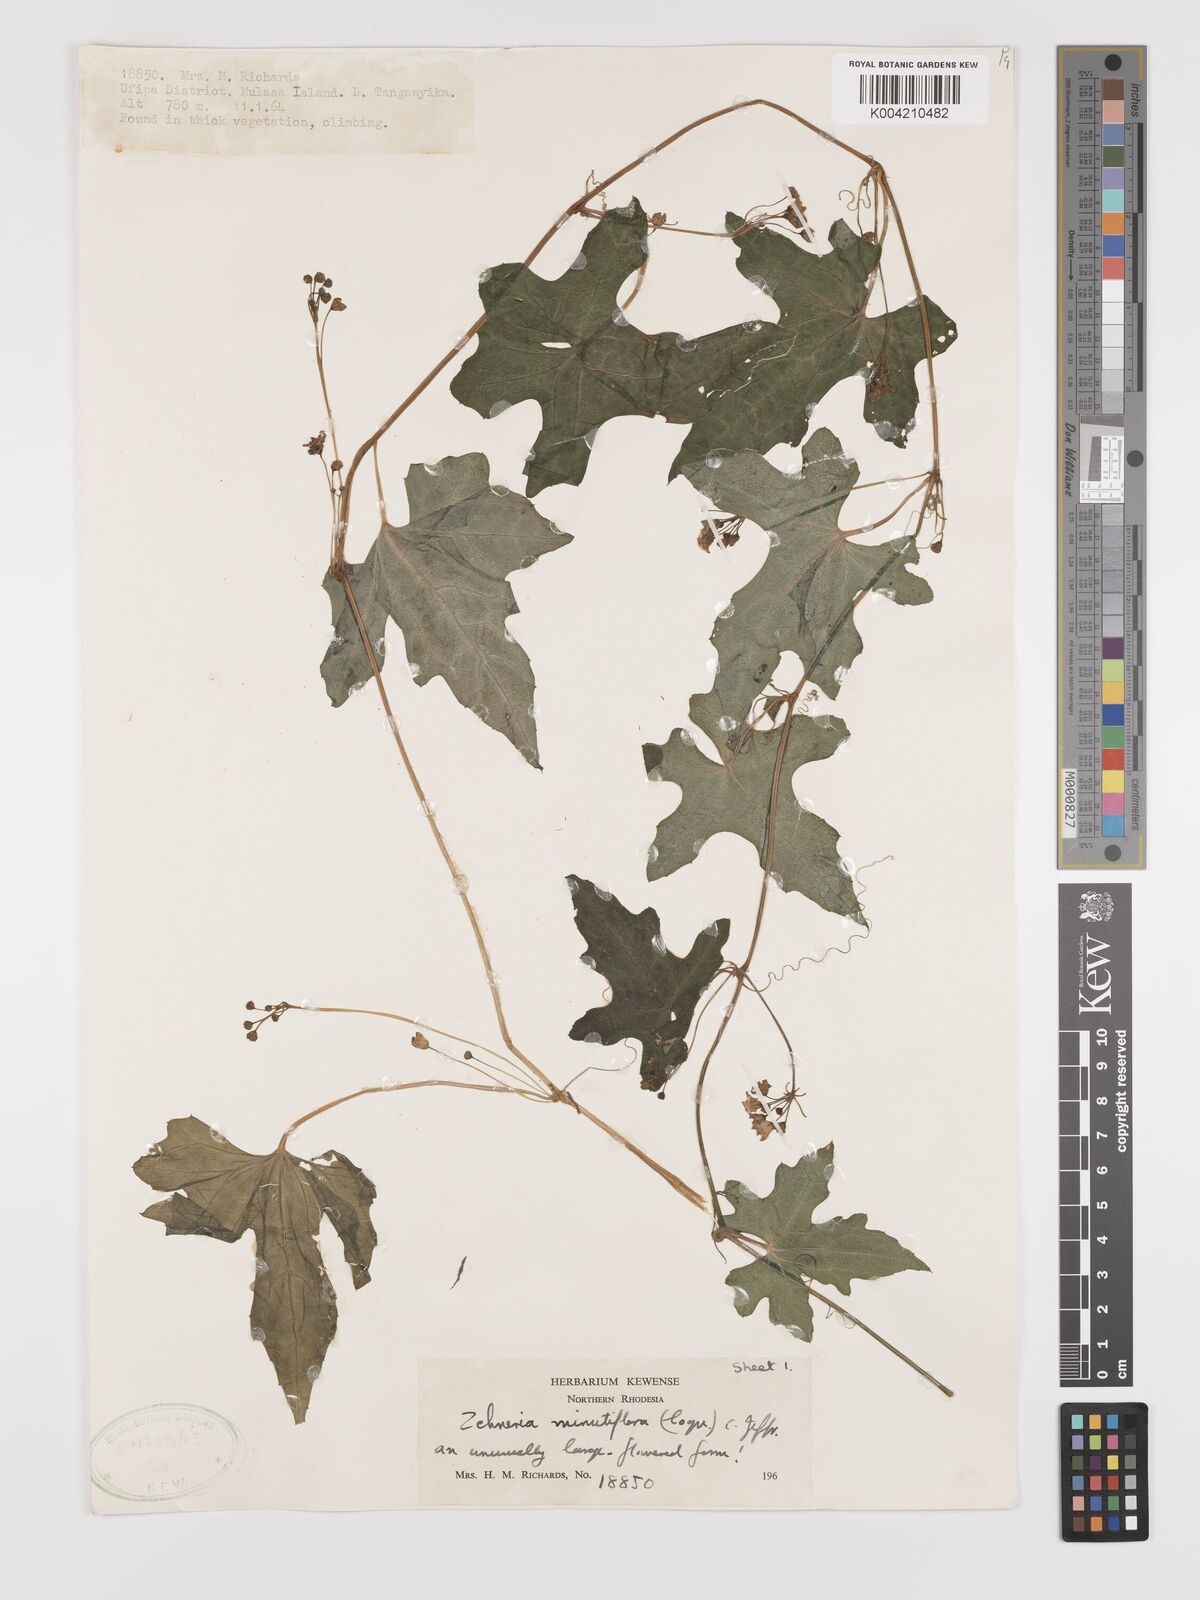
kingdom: Plantae
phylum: Tracheophyta
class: Magnoliopsida
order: Cucurbitales
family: Cucurbitaceae
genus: Zehneria
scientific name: Zehneria minutiflora
